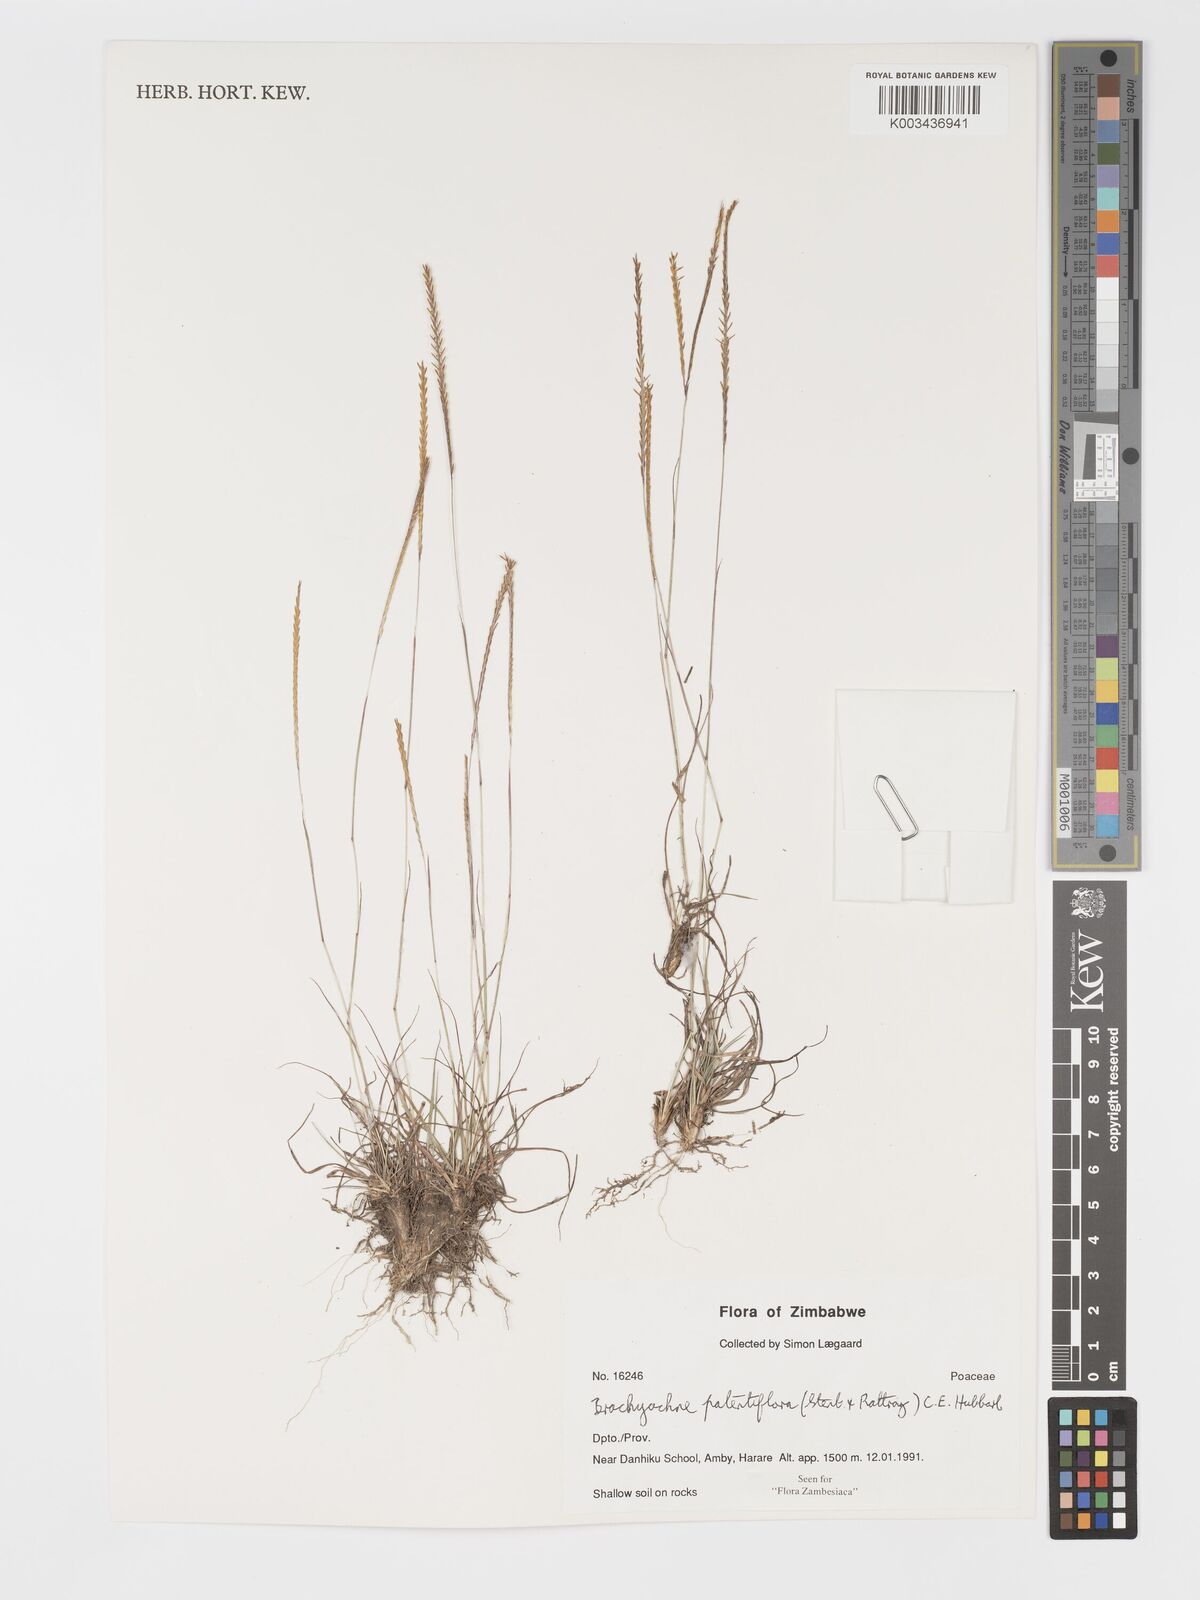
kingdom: Plantae
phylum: Tracheophyta
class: Liliopsida
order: Poales
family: Poaceae
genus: Micrachne
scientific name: Micrachne patentiflora
